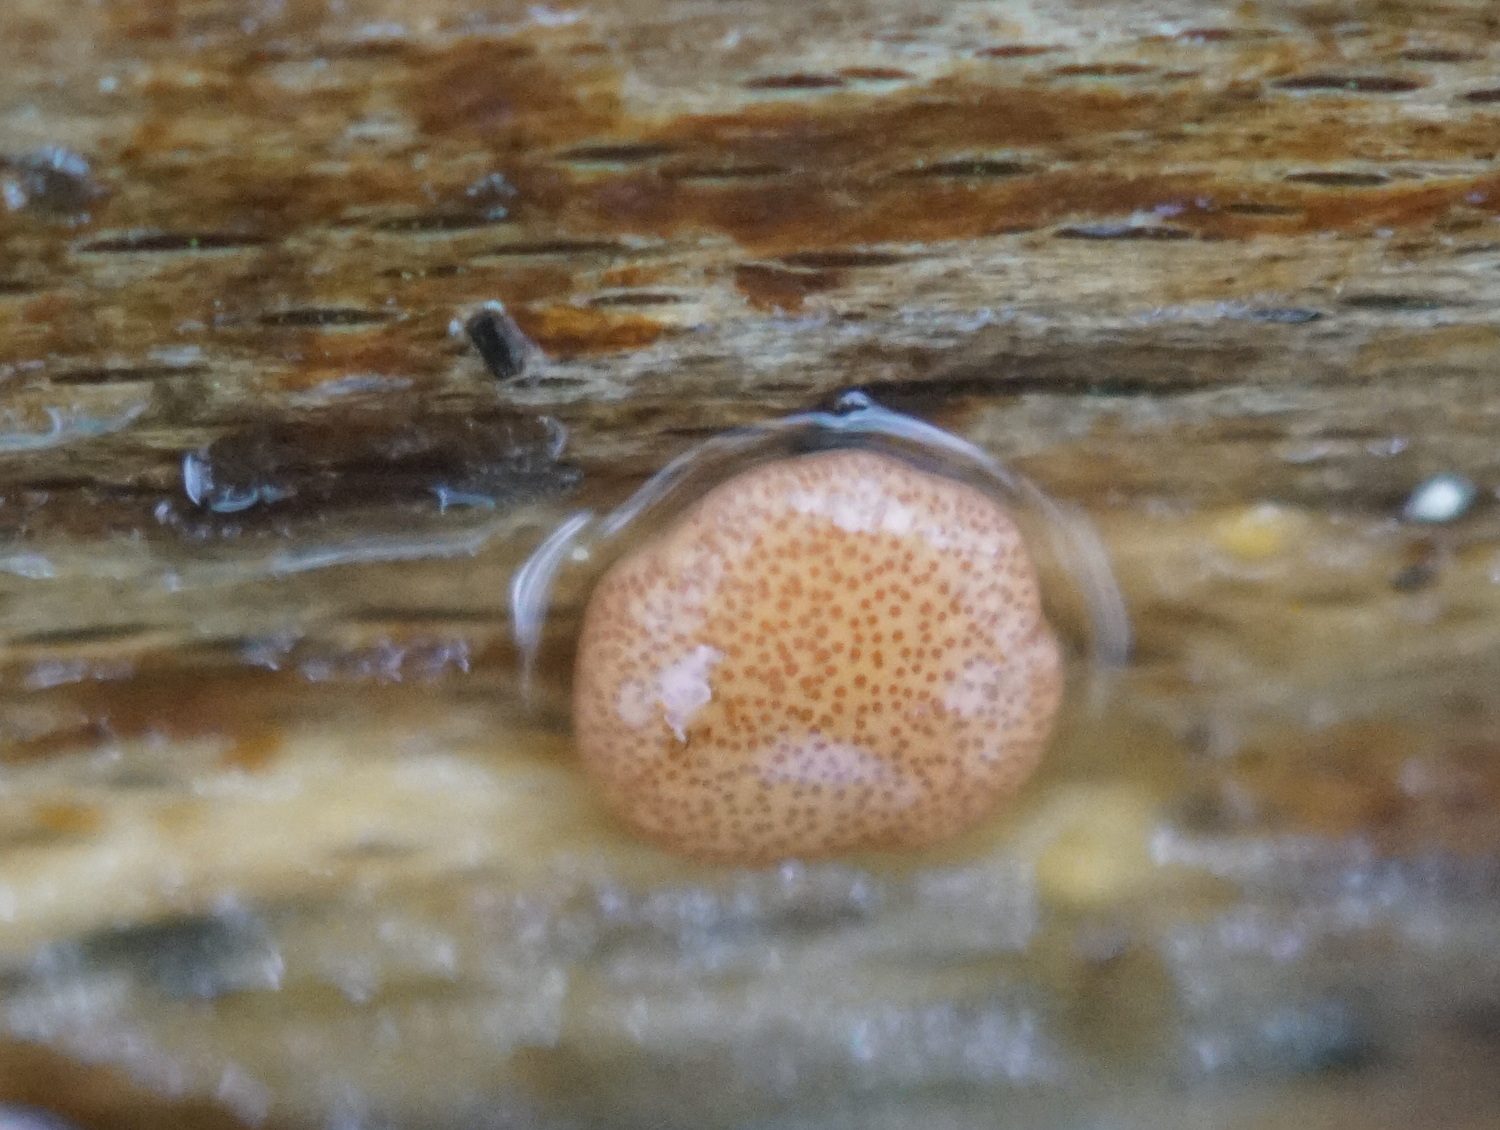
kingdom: Fungi
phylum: Ascomycota
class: Sordariomycetes
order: Hypocreales
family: Hypocreaceae
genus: Trichoderma
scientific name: Trichoderma europaeum
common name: rosabrun kødkerne
